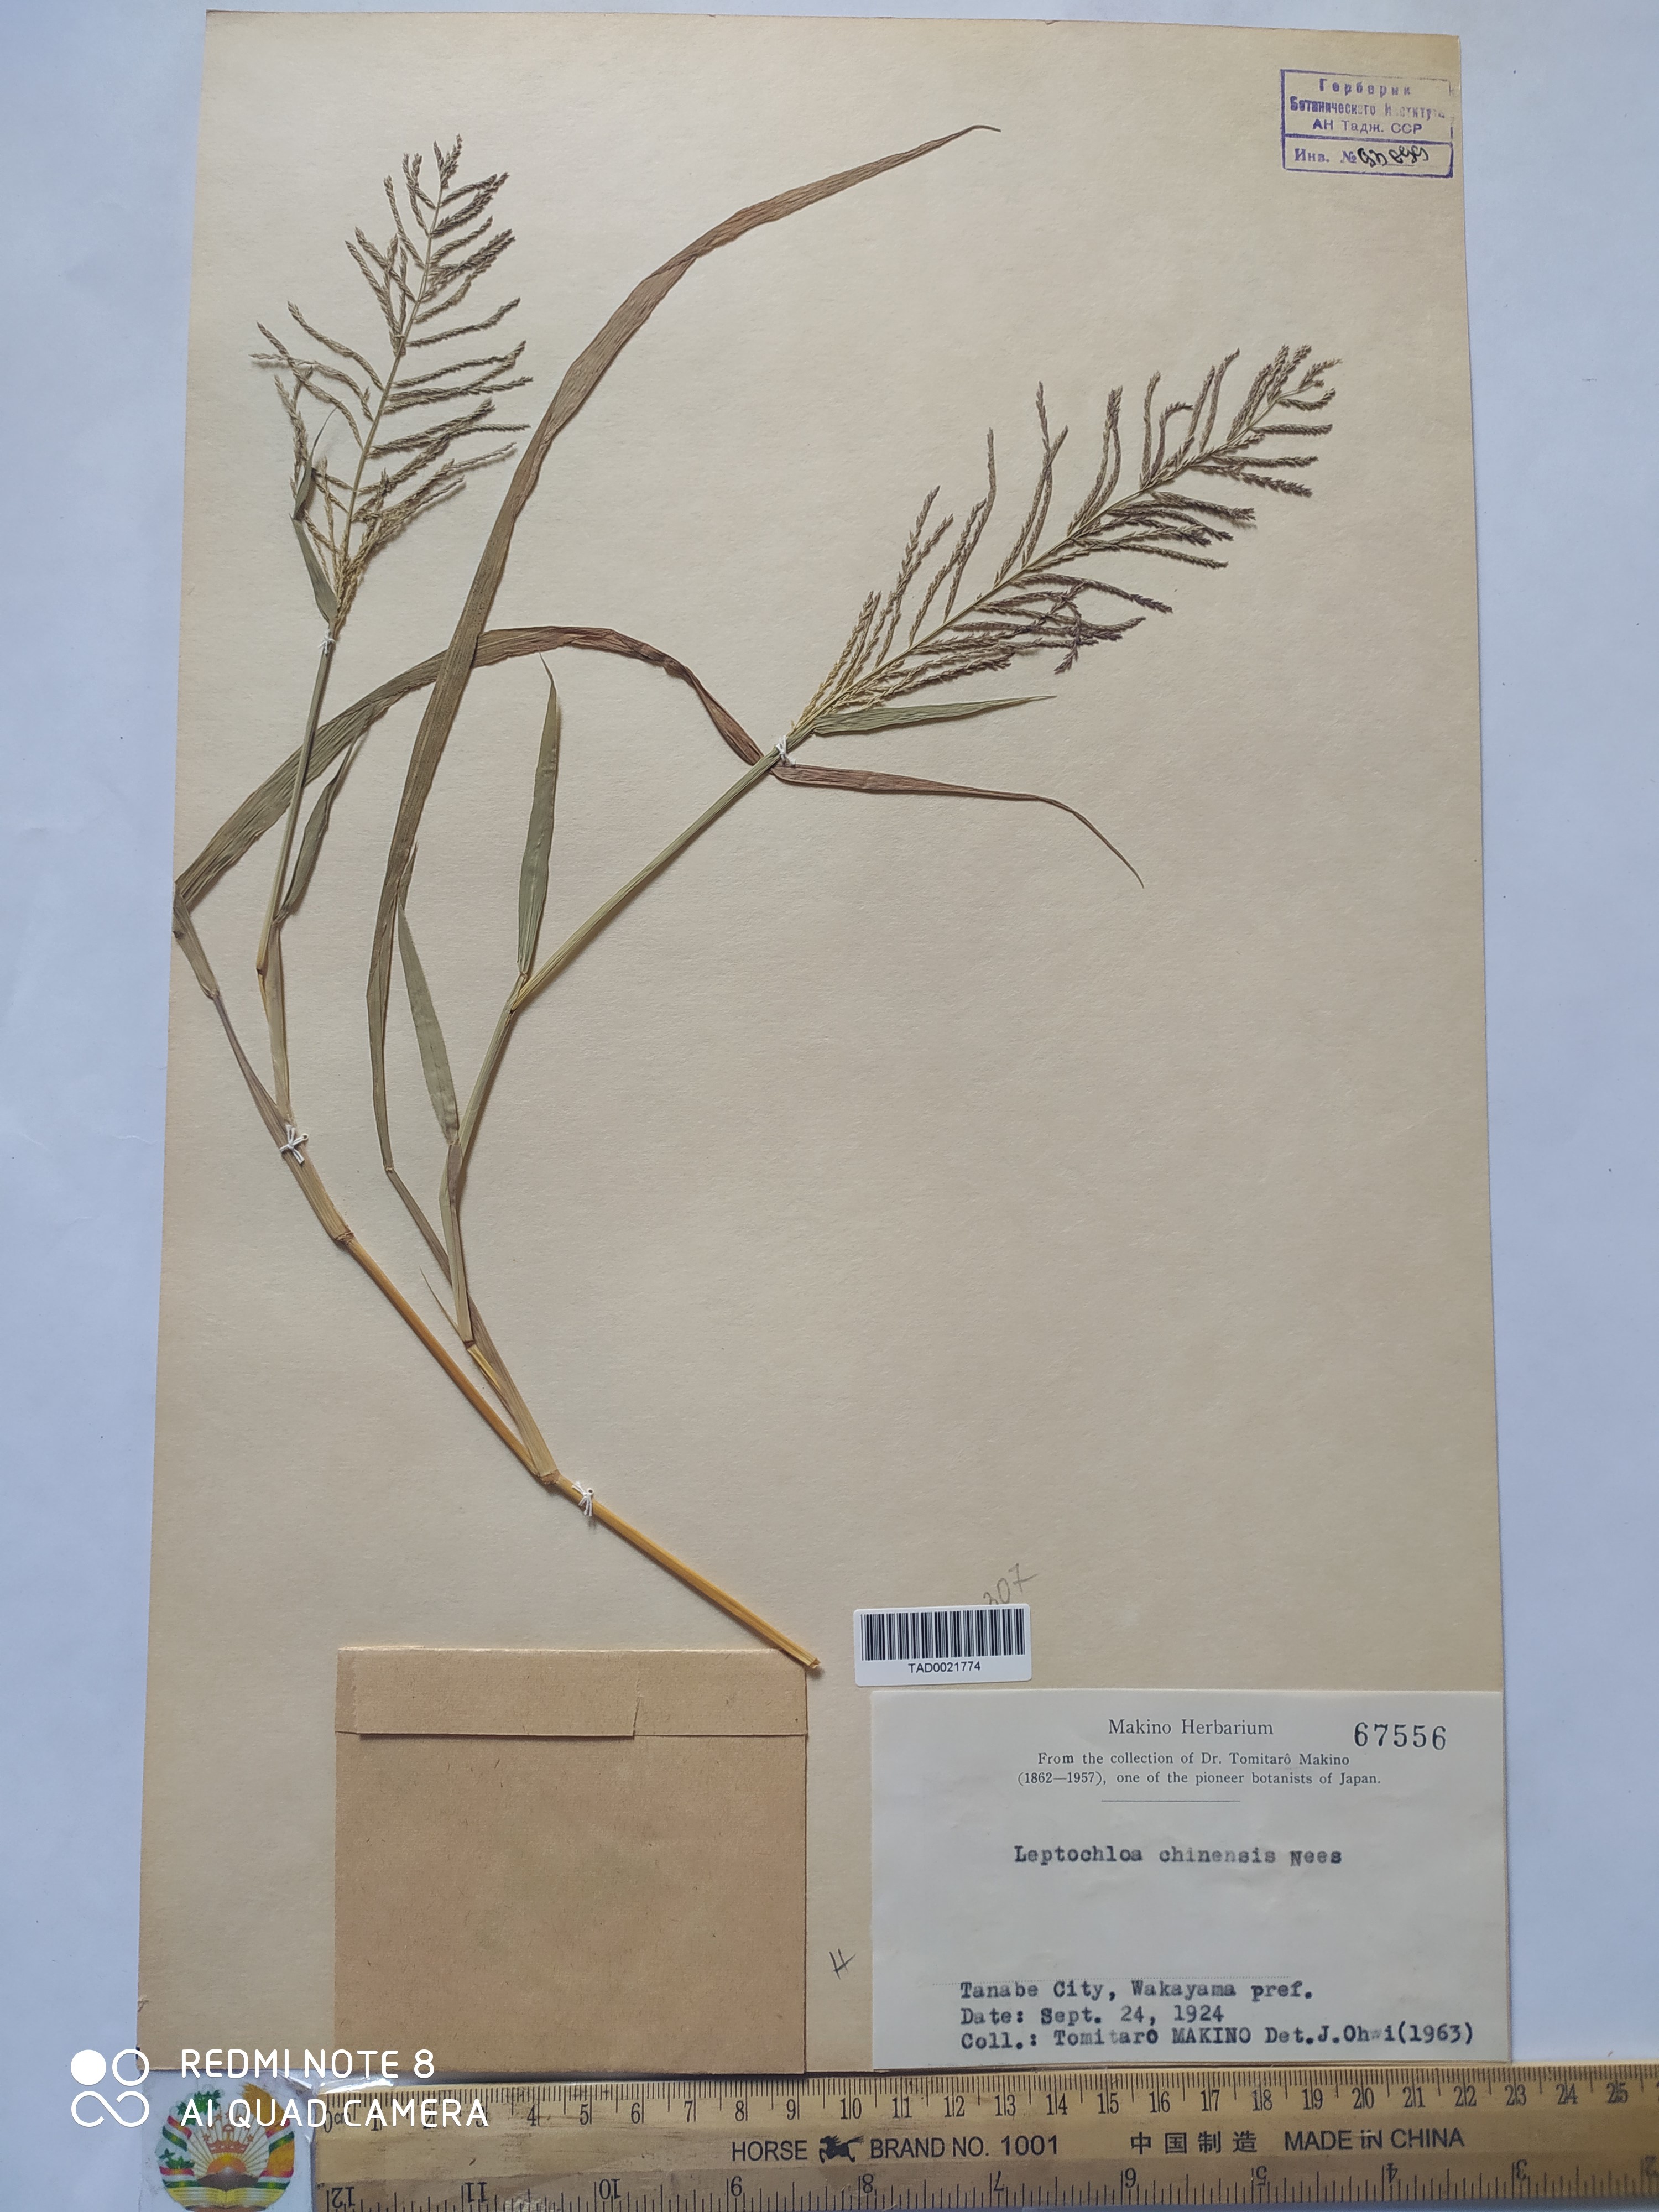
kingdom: Plantae
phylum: Tracheophyta
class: Liliopsida
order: Poales
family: Poaceae
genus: Leptochloa
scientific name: Leptochloa chinensis
